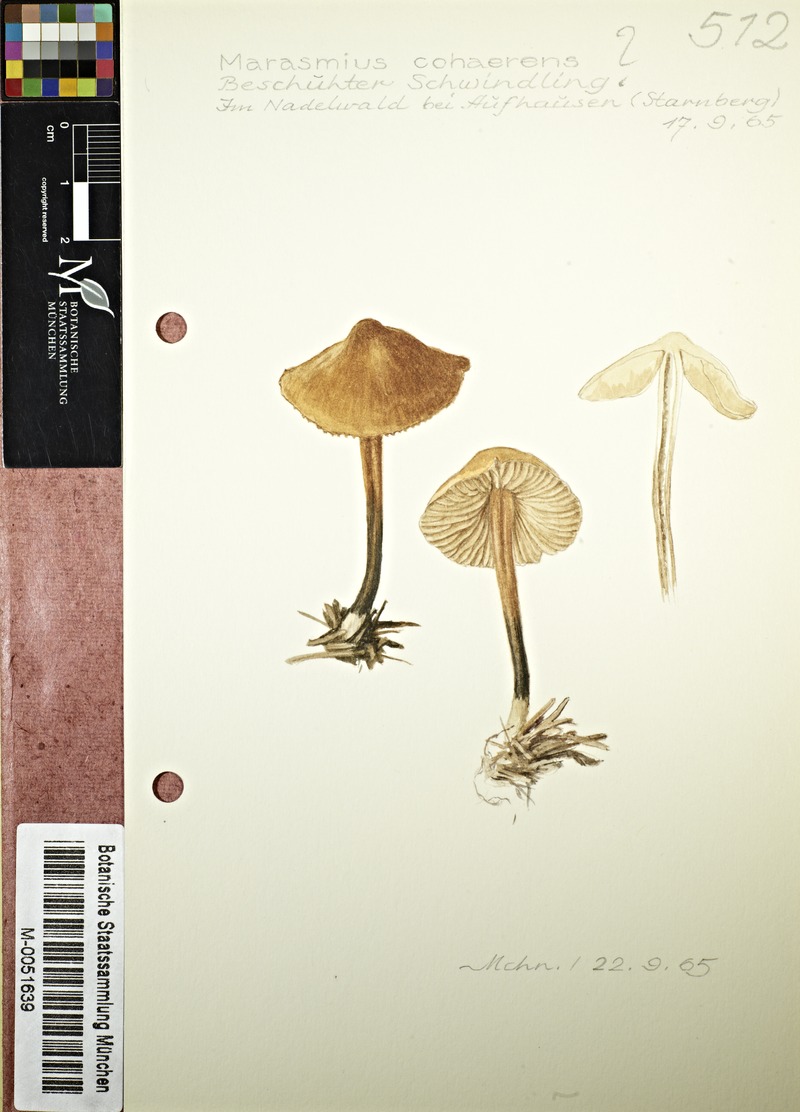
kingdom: Fungi
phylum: Basidiomycota
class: Agaricomycetes
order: Agaricales
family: Marasmiaceae
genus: Marasmius
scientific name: Marasmius cohaerens
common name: Bristled parachute
